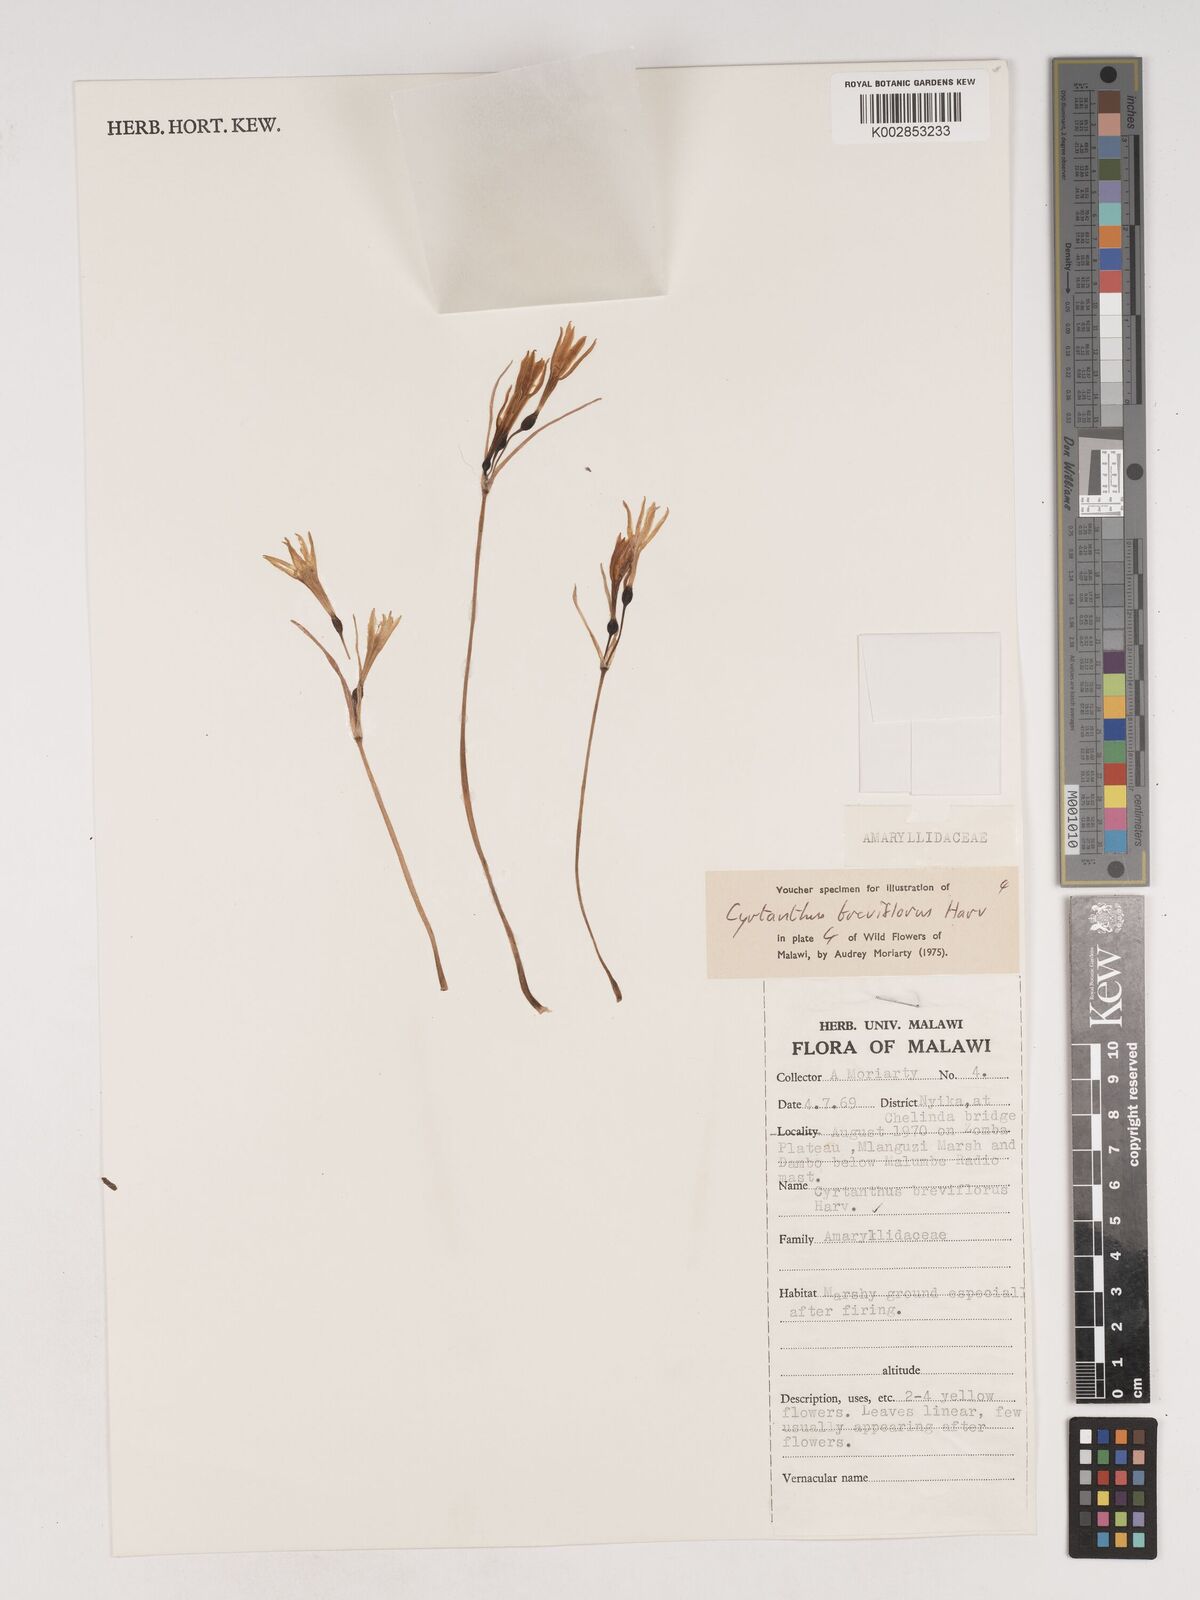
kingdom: Plantae
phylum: Tracheophyta
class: Liliopsida
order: Asparagales
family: Amaryllidaceae
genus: Cyrtanthus
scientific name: Cyrtanthus breviflorus
